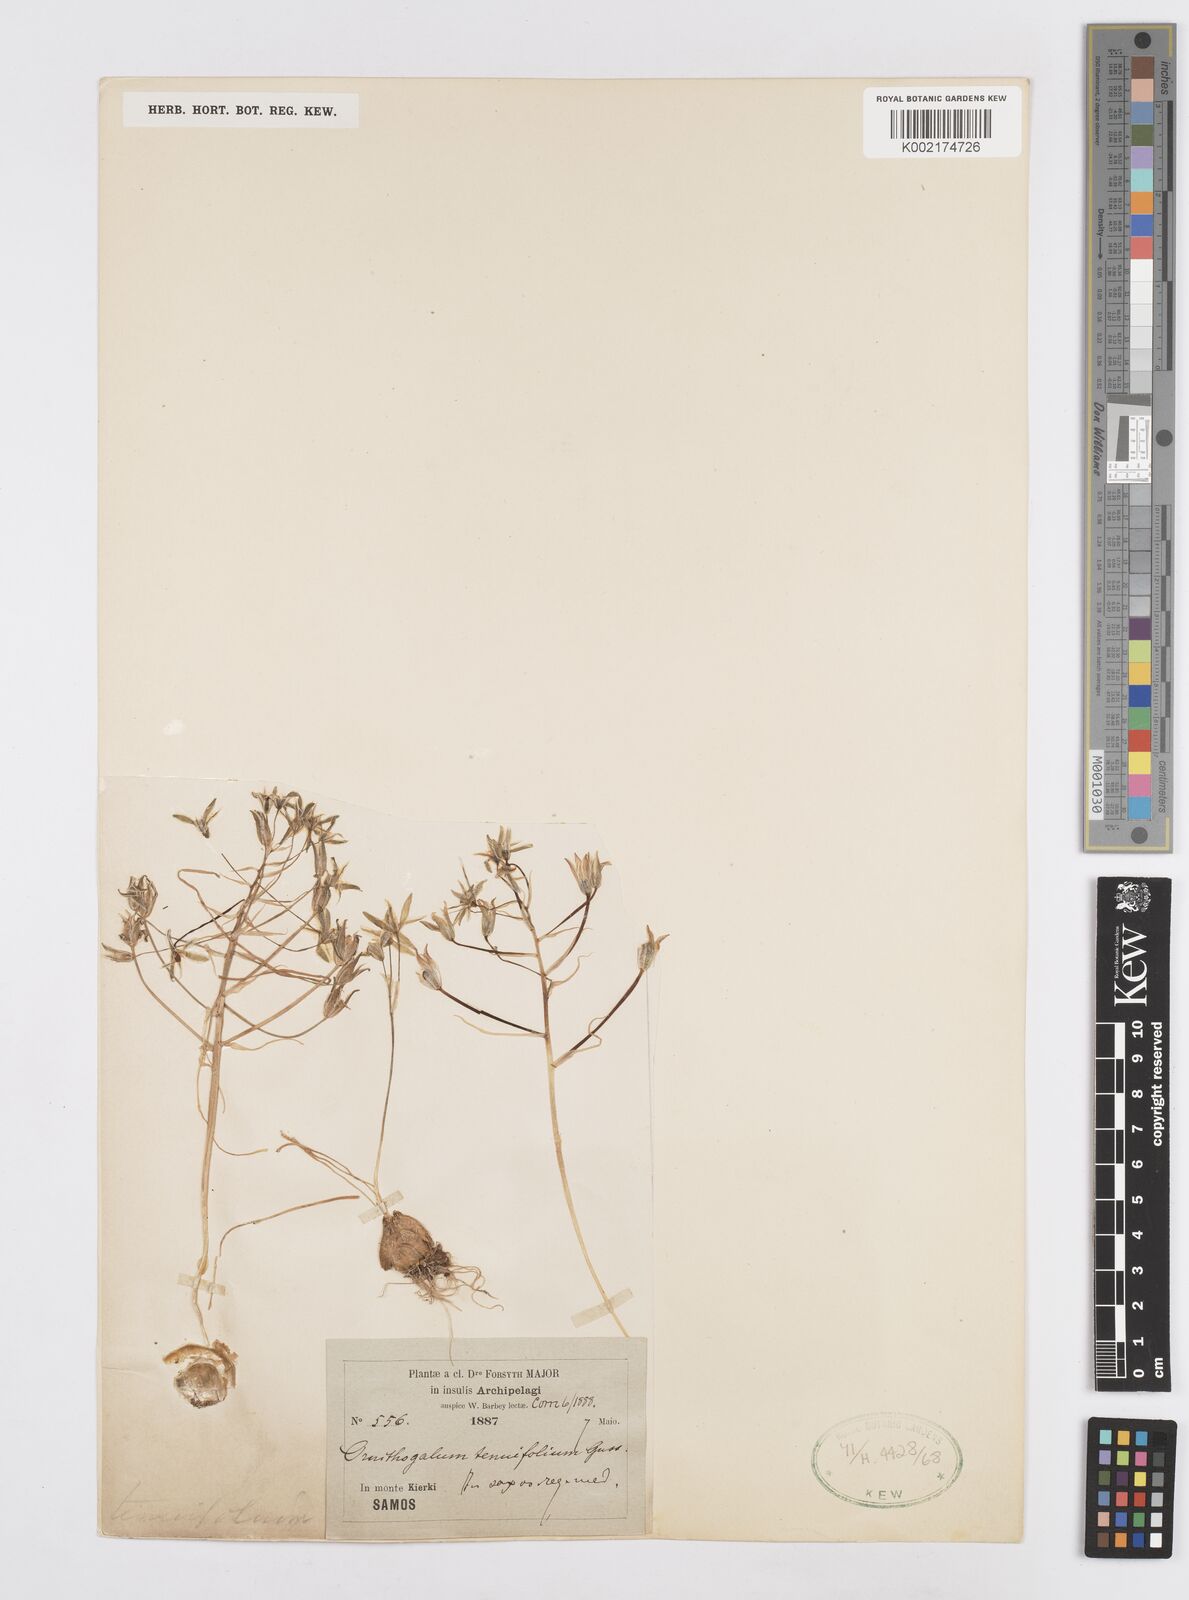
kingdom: Plantae
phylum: Tracheophyta
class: Liliopsida
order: Asparagales
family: Asparagaceae
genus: Ornithogalum
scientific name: Ornithogalum
